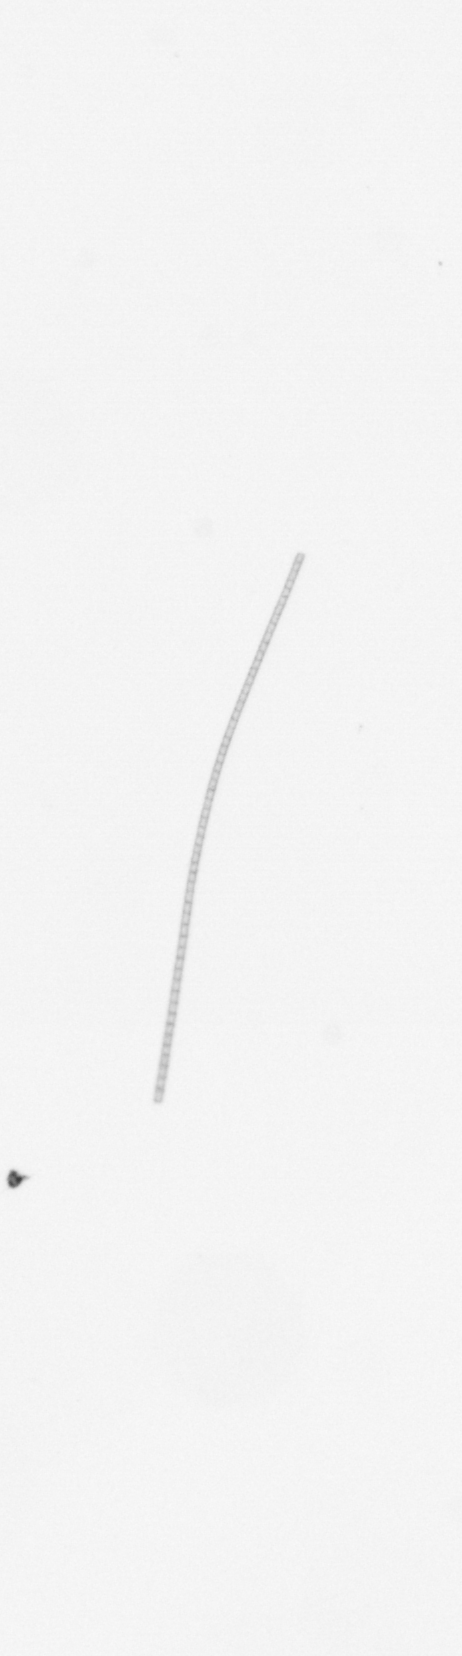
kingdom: Chromista
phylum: Ochrophyta
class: Bacillariophyceae
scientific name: Bacillariophyceae
